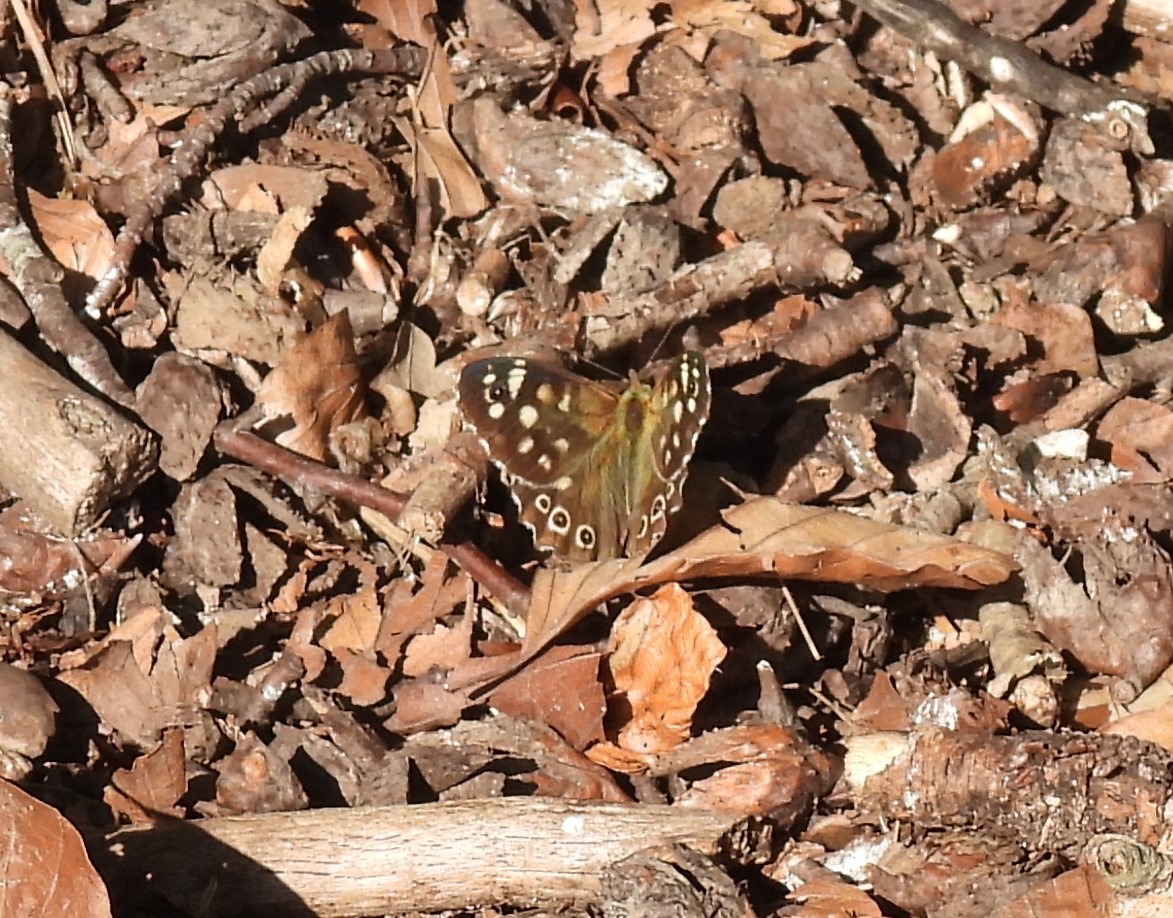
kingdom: Animalia
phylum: Arthropoda
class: Insecta
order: Lepidoptera
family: Nymphalidae
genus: Pararge
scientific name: Pararge aegeria
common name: Skovrandøje
